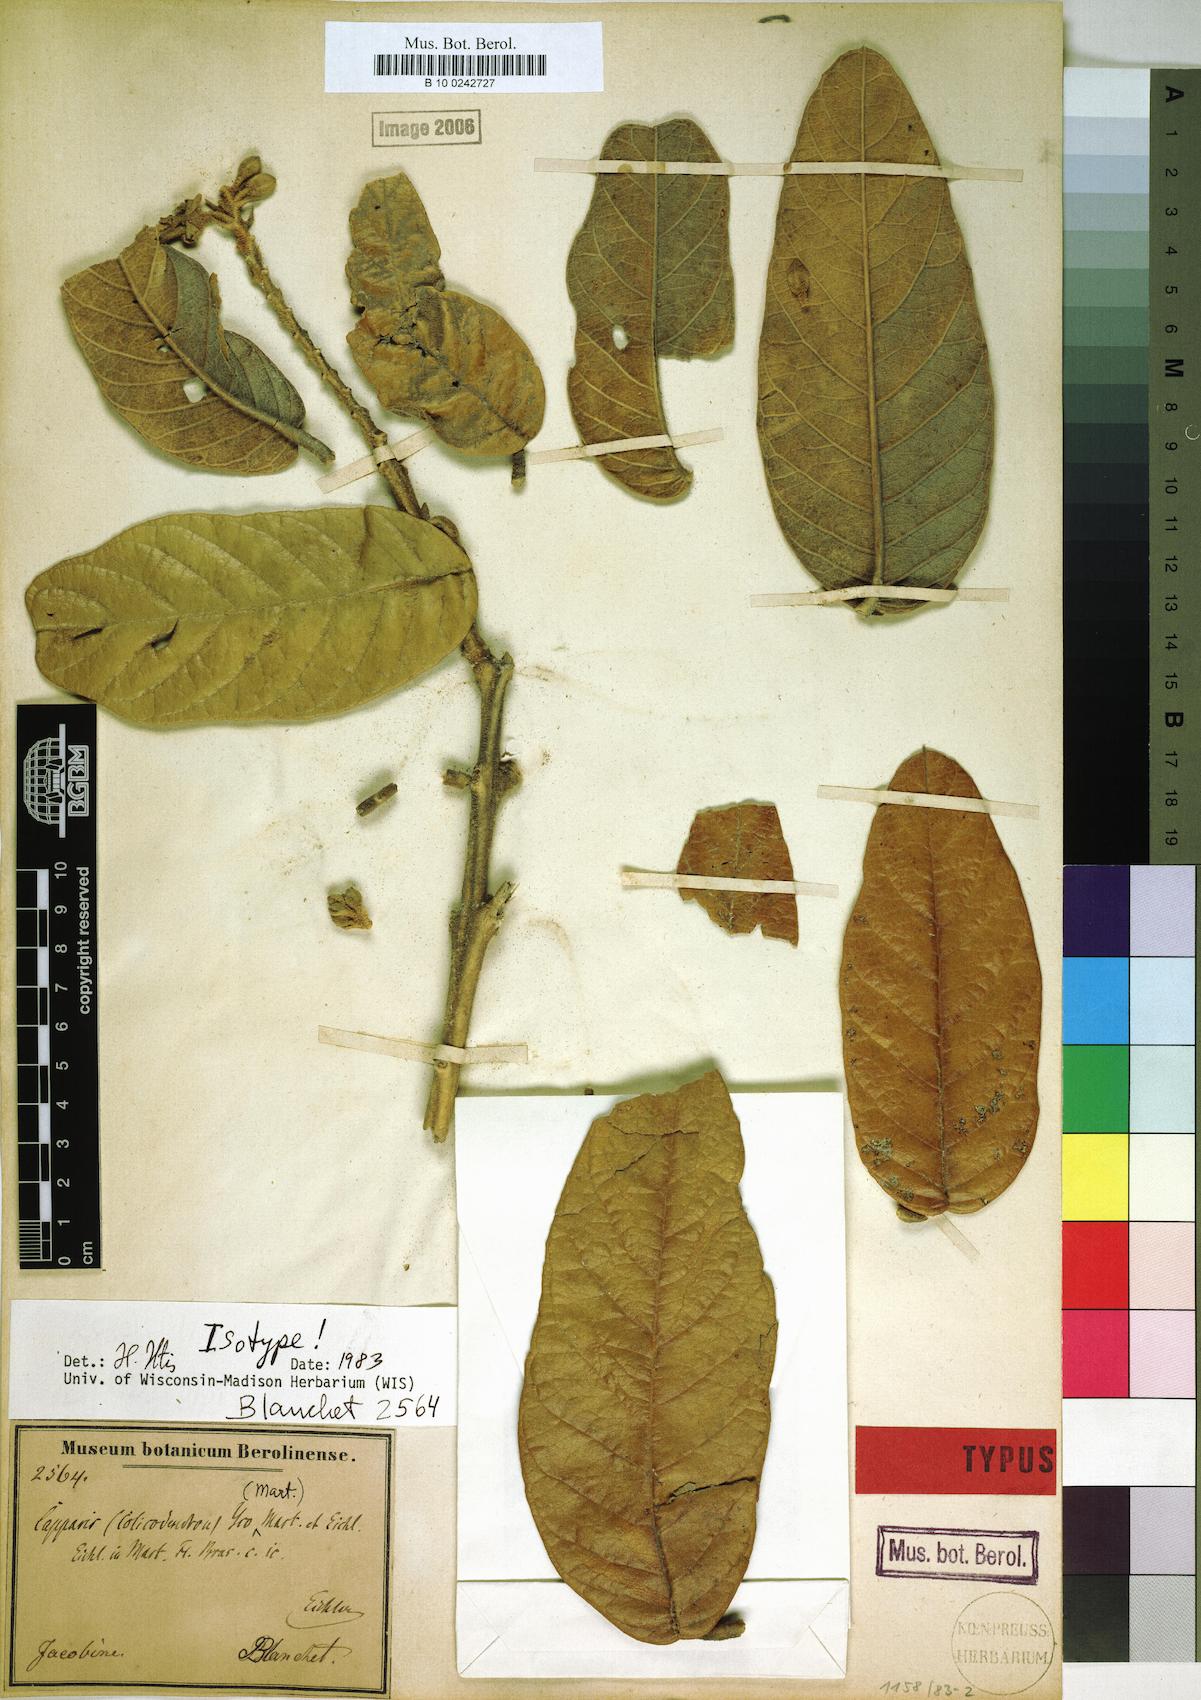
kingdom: Plantae
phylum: Tracheophyta
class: Magnoliopsida
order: Brassicales
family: Capparaceae
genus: Colicodendron
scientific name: Colicodendron yco
